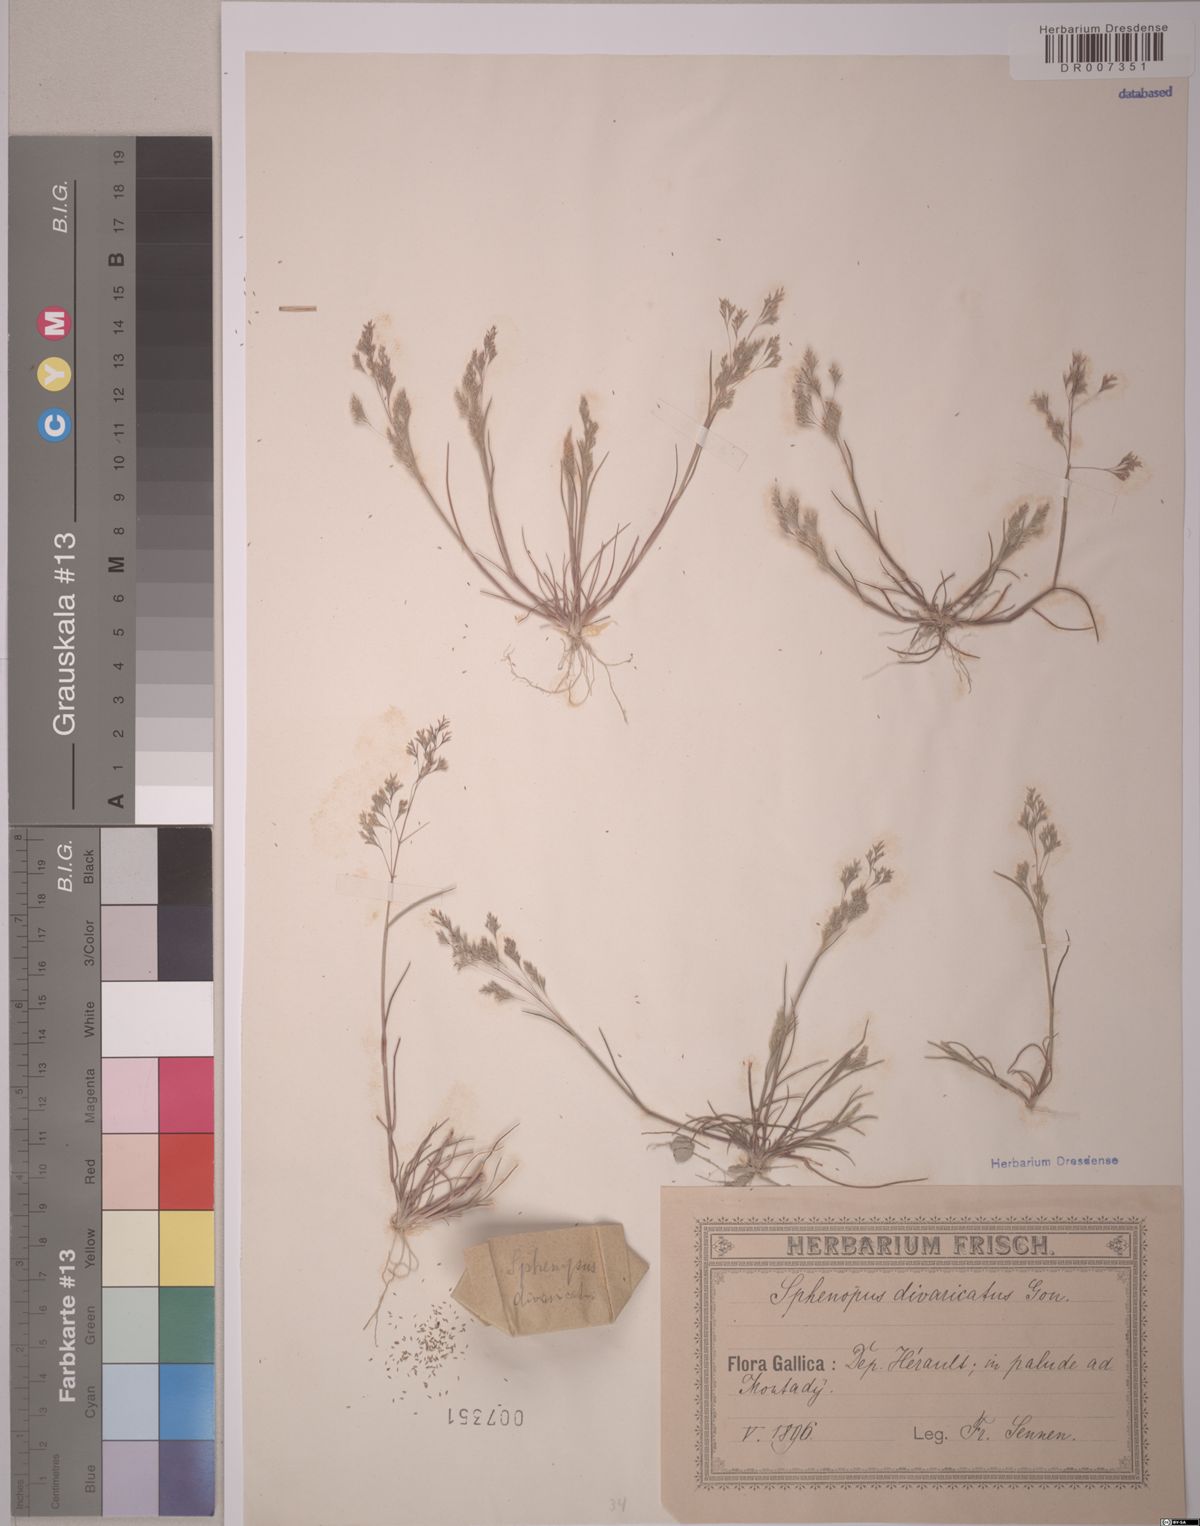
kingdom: Plantae
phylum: Tracheophyta
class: Liliopsida
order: Poales
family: Poaceae
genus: Sphenopus
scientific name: Sphenopus divaricatus
